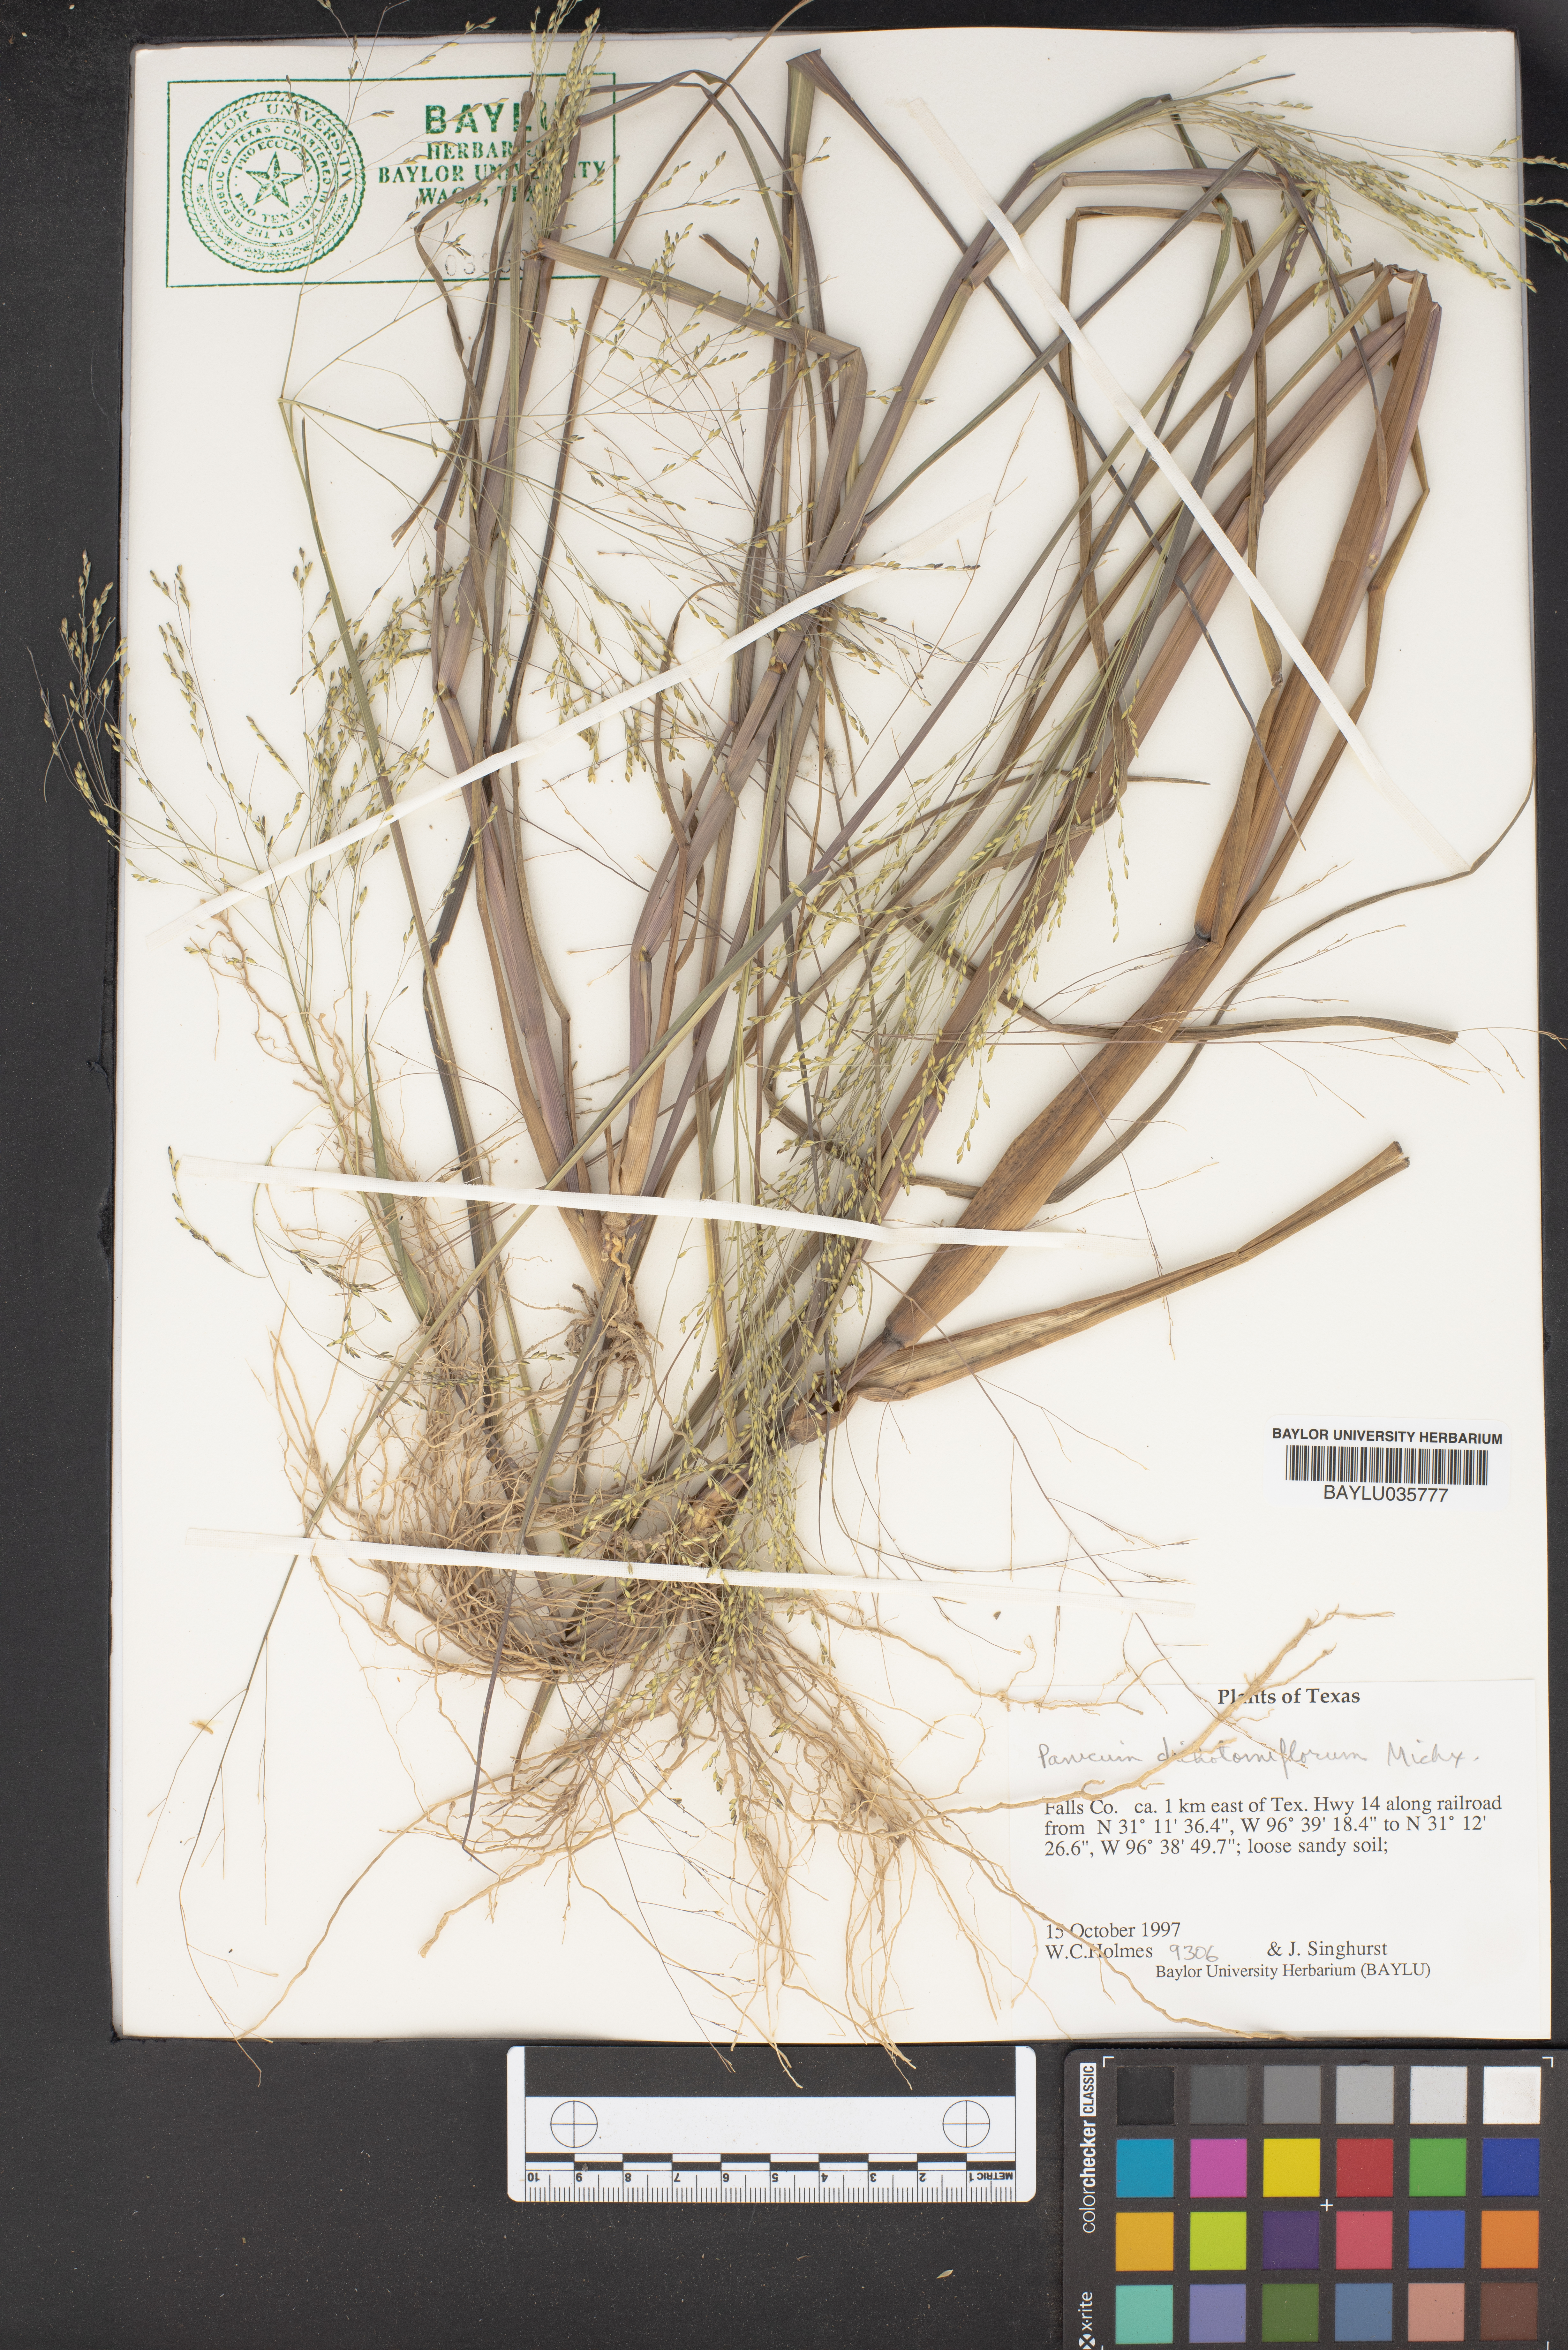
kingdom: Plantae
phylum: Tracheophyta
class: Liliopsida
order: Poales
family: Poaceae
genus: Panicum
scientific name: Panicum dichotomiflorum
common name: Autumn millet
